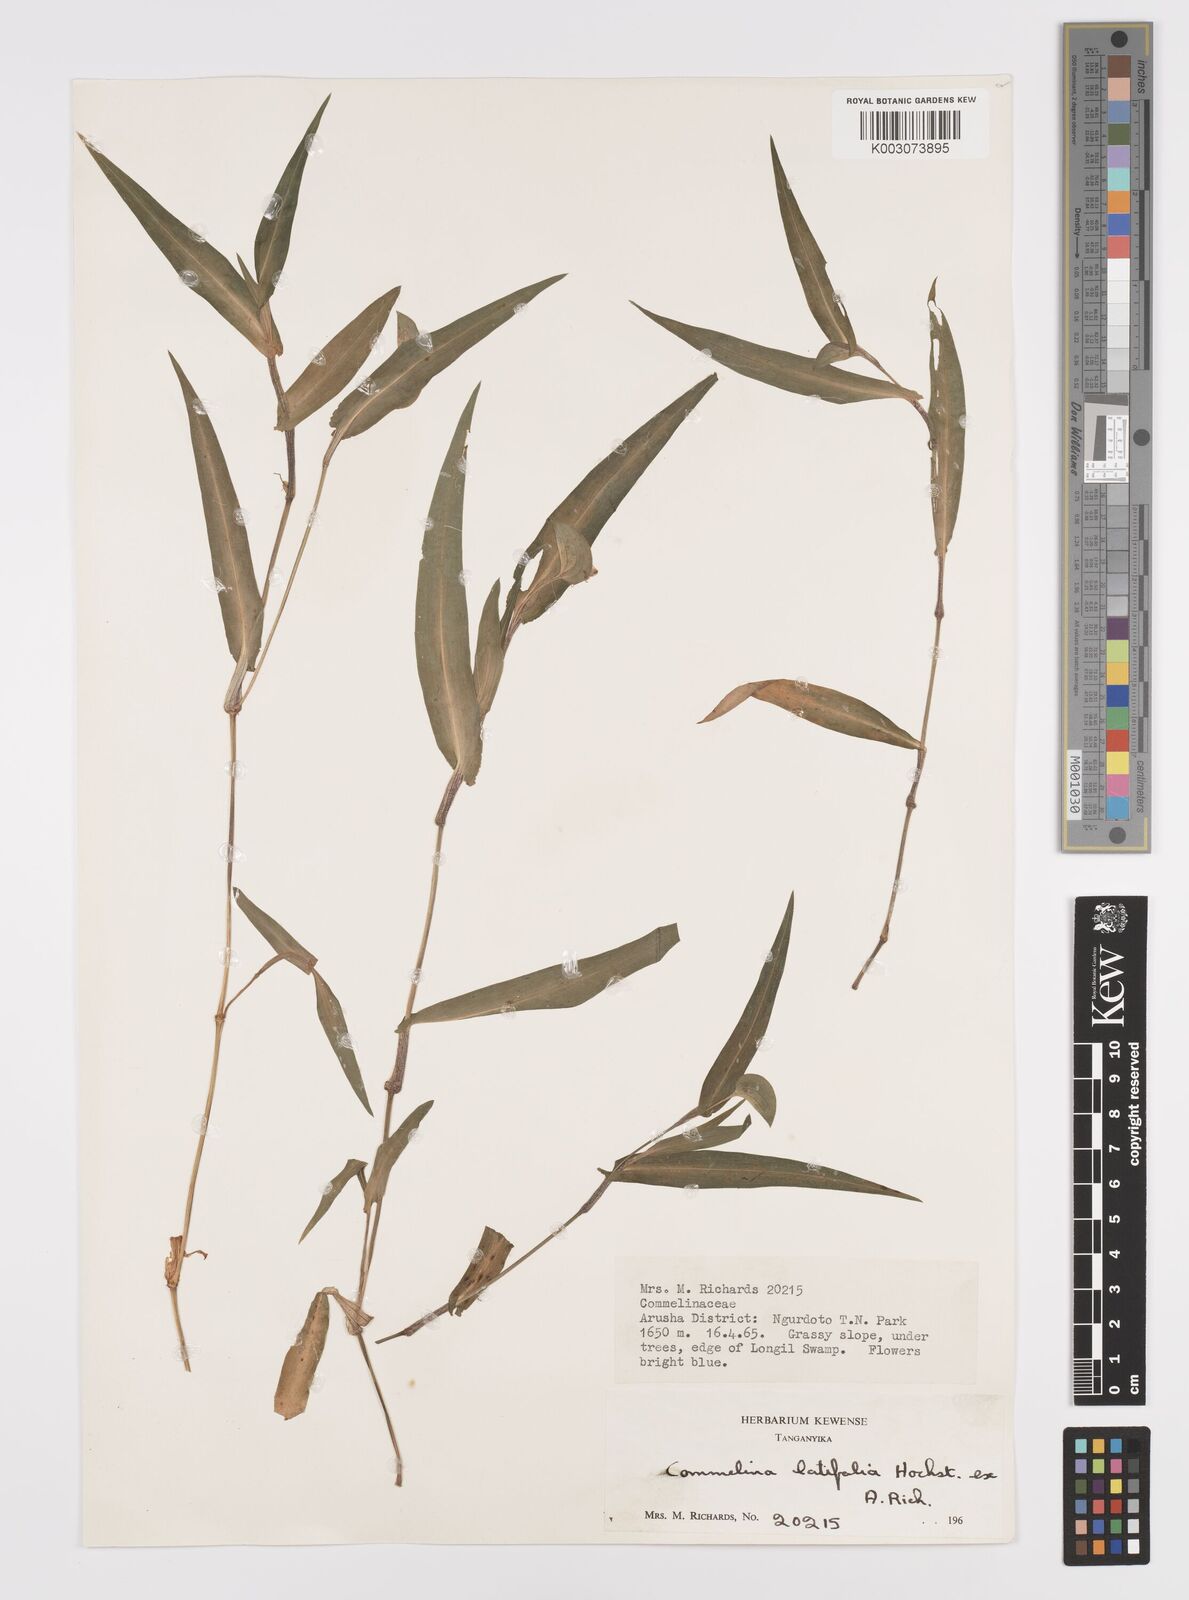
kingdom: Plantae
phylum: Tracheophyta
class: Liliopsida
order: Commelinales
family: Commelinaceae
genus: Commelina
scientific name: Commelina latifolia
